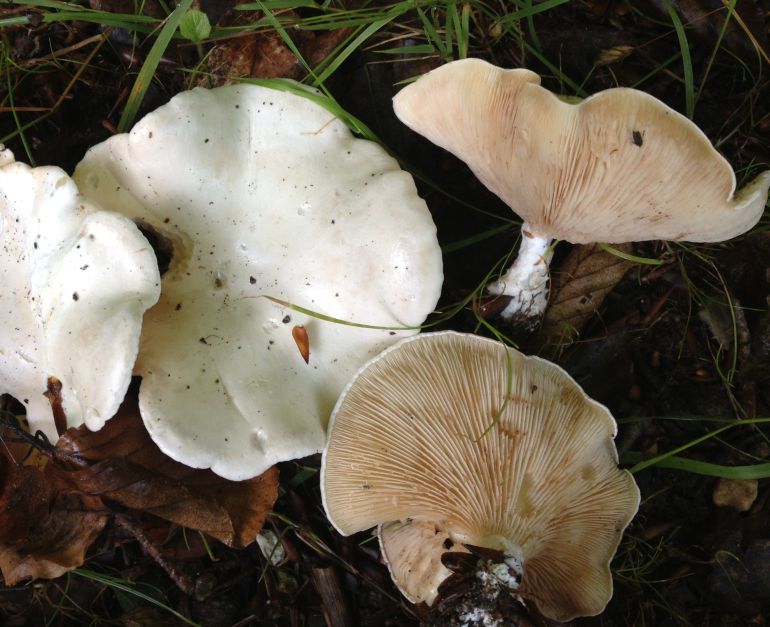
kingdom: Fungi
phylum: Basidiomycota
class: Agaricomycetes
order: Agaricales
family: Entolomataceae
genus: Clitopilus
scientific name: Clitopilus prunulus
